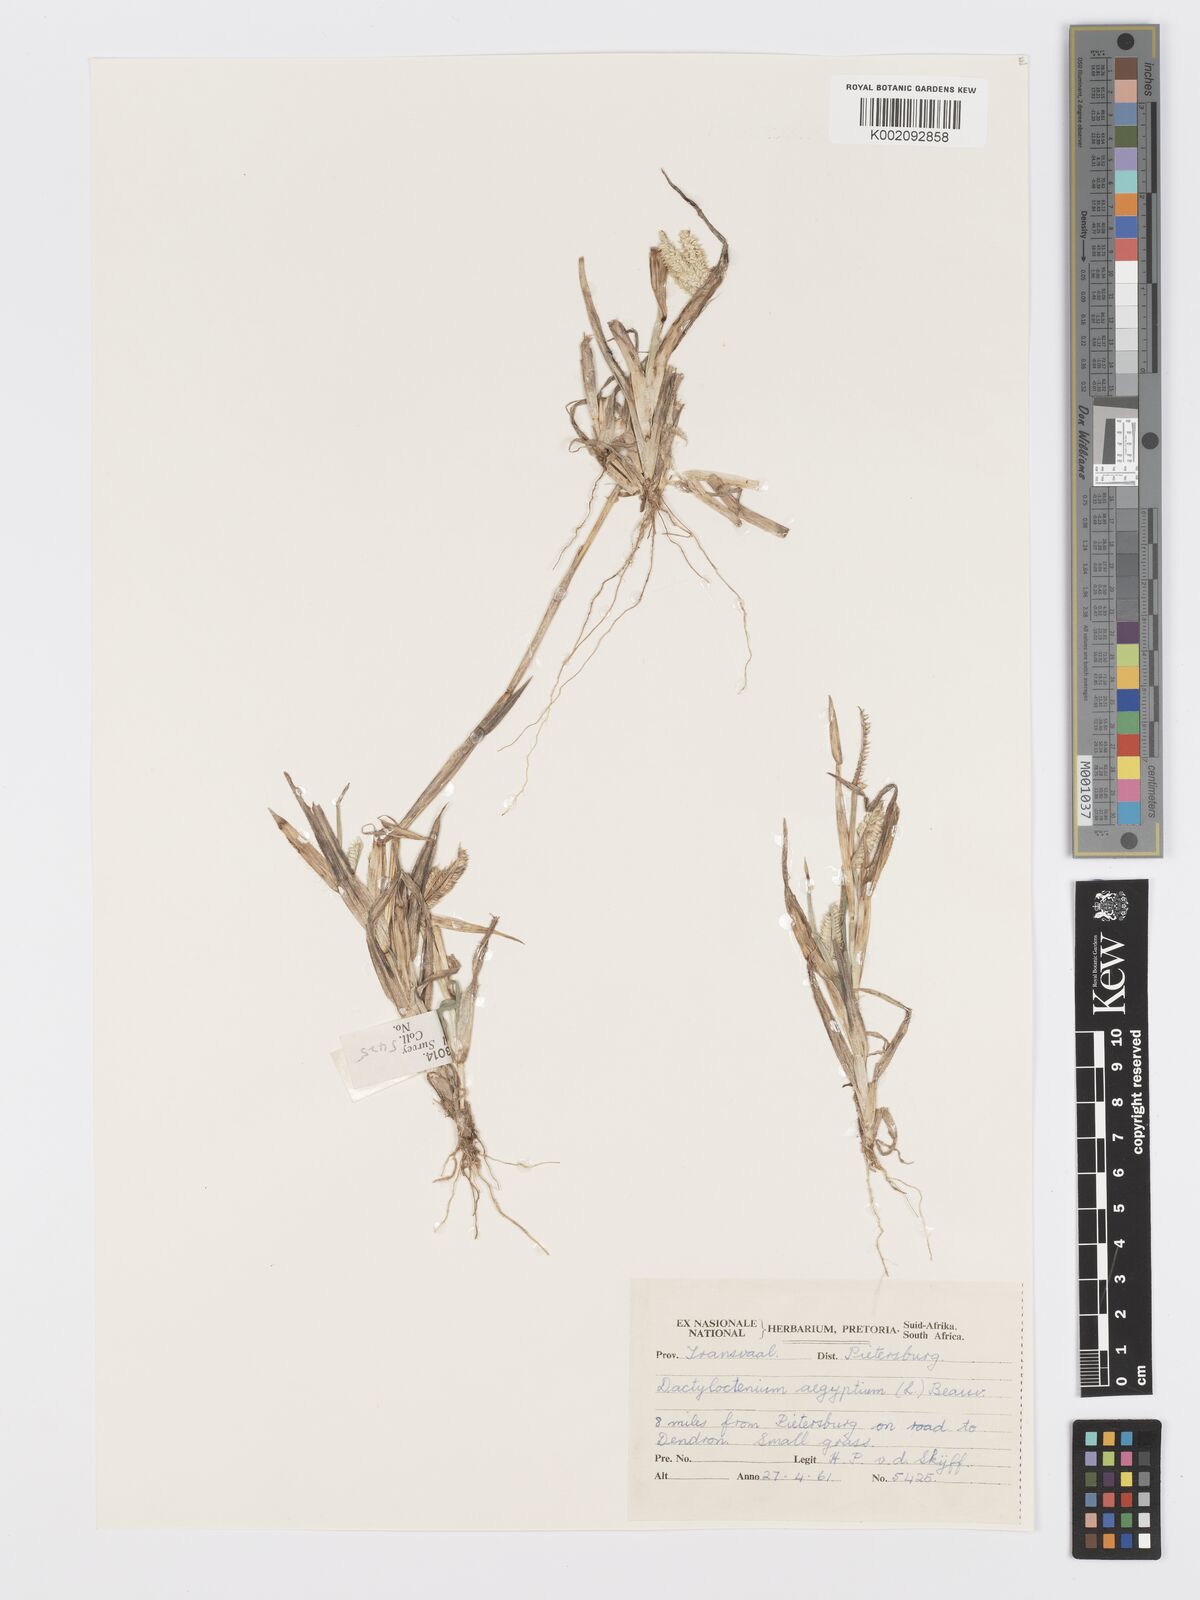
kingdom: Plantae
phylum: Tracheophyta
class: Liliopsida
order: Poales
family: Poaceae
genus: Dactyloctenium
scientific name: Dactyloctenium aegyptium
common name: Egyptian grass
